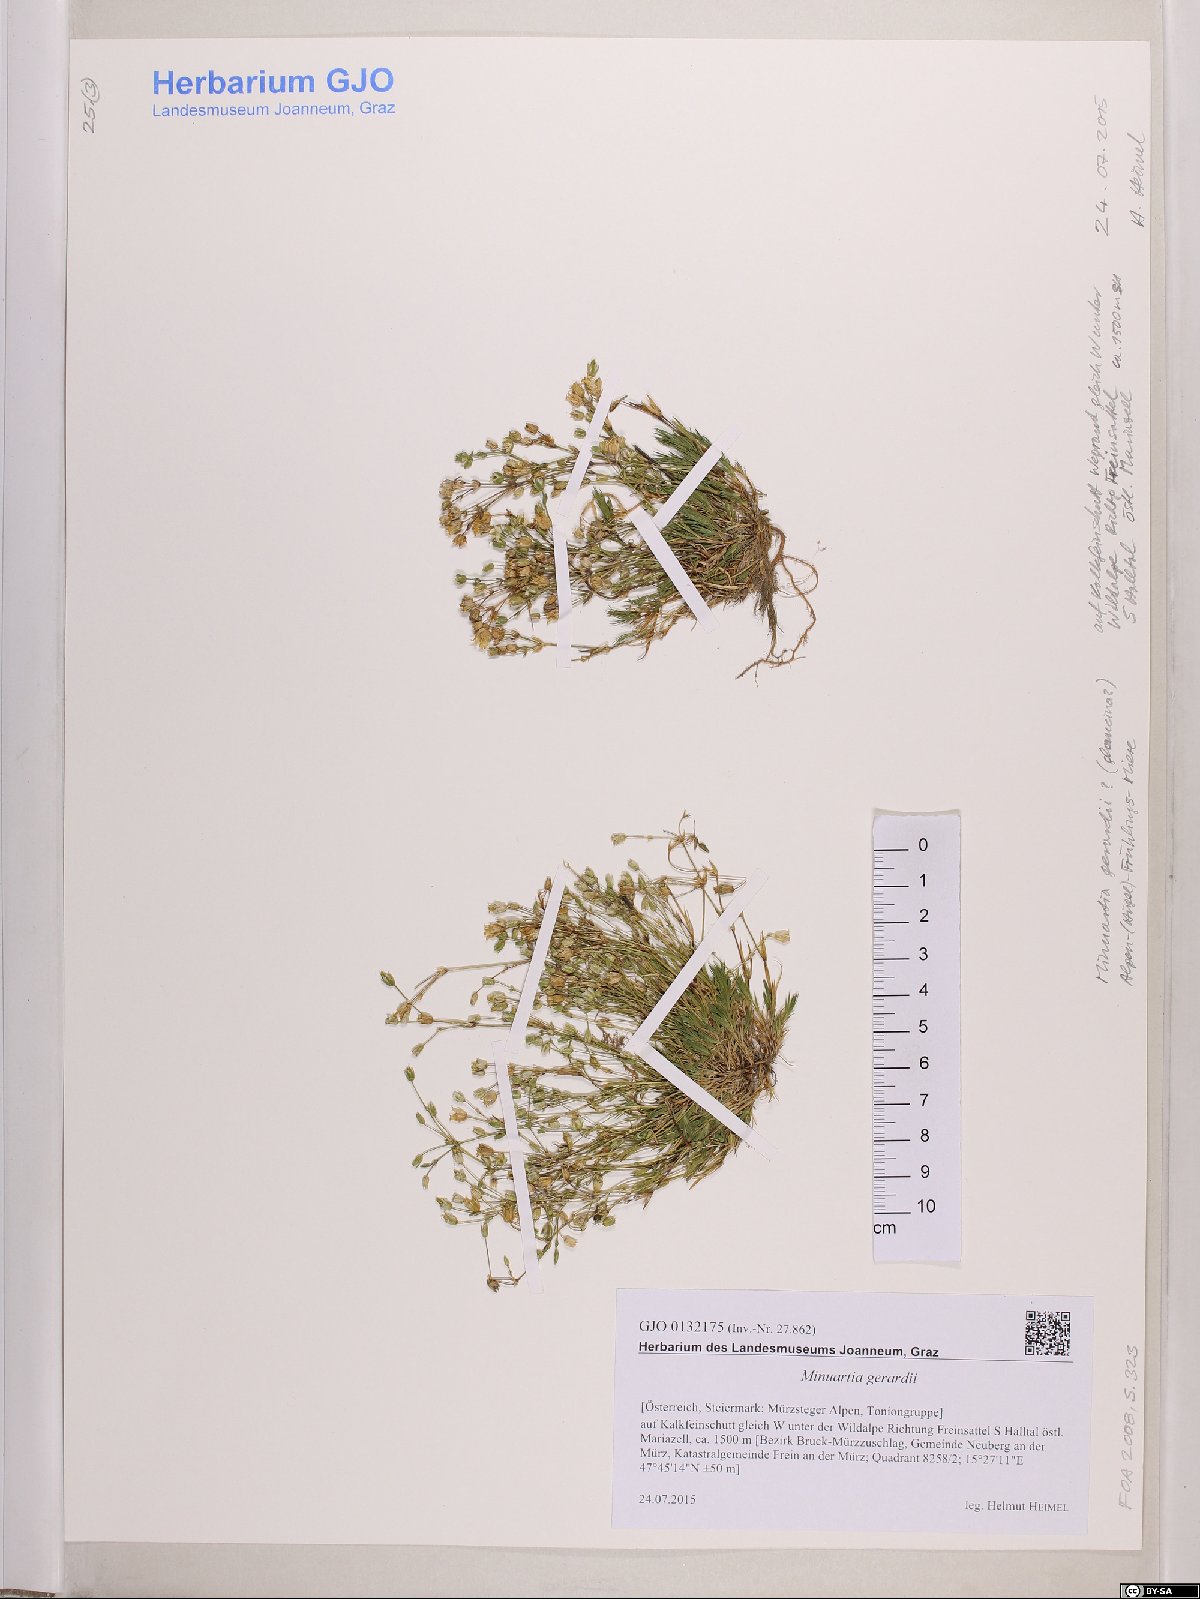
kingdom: Plantae
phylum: Tracheophyta
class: Magnoliopsida
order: Caryophyllales
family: Caryophyllaceae
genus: Sabulina
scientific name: Sabulina verna
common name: Spring sandwort
